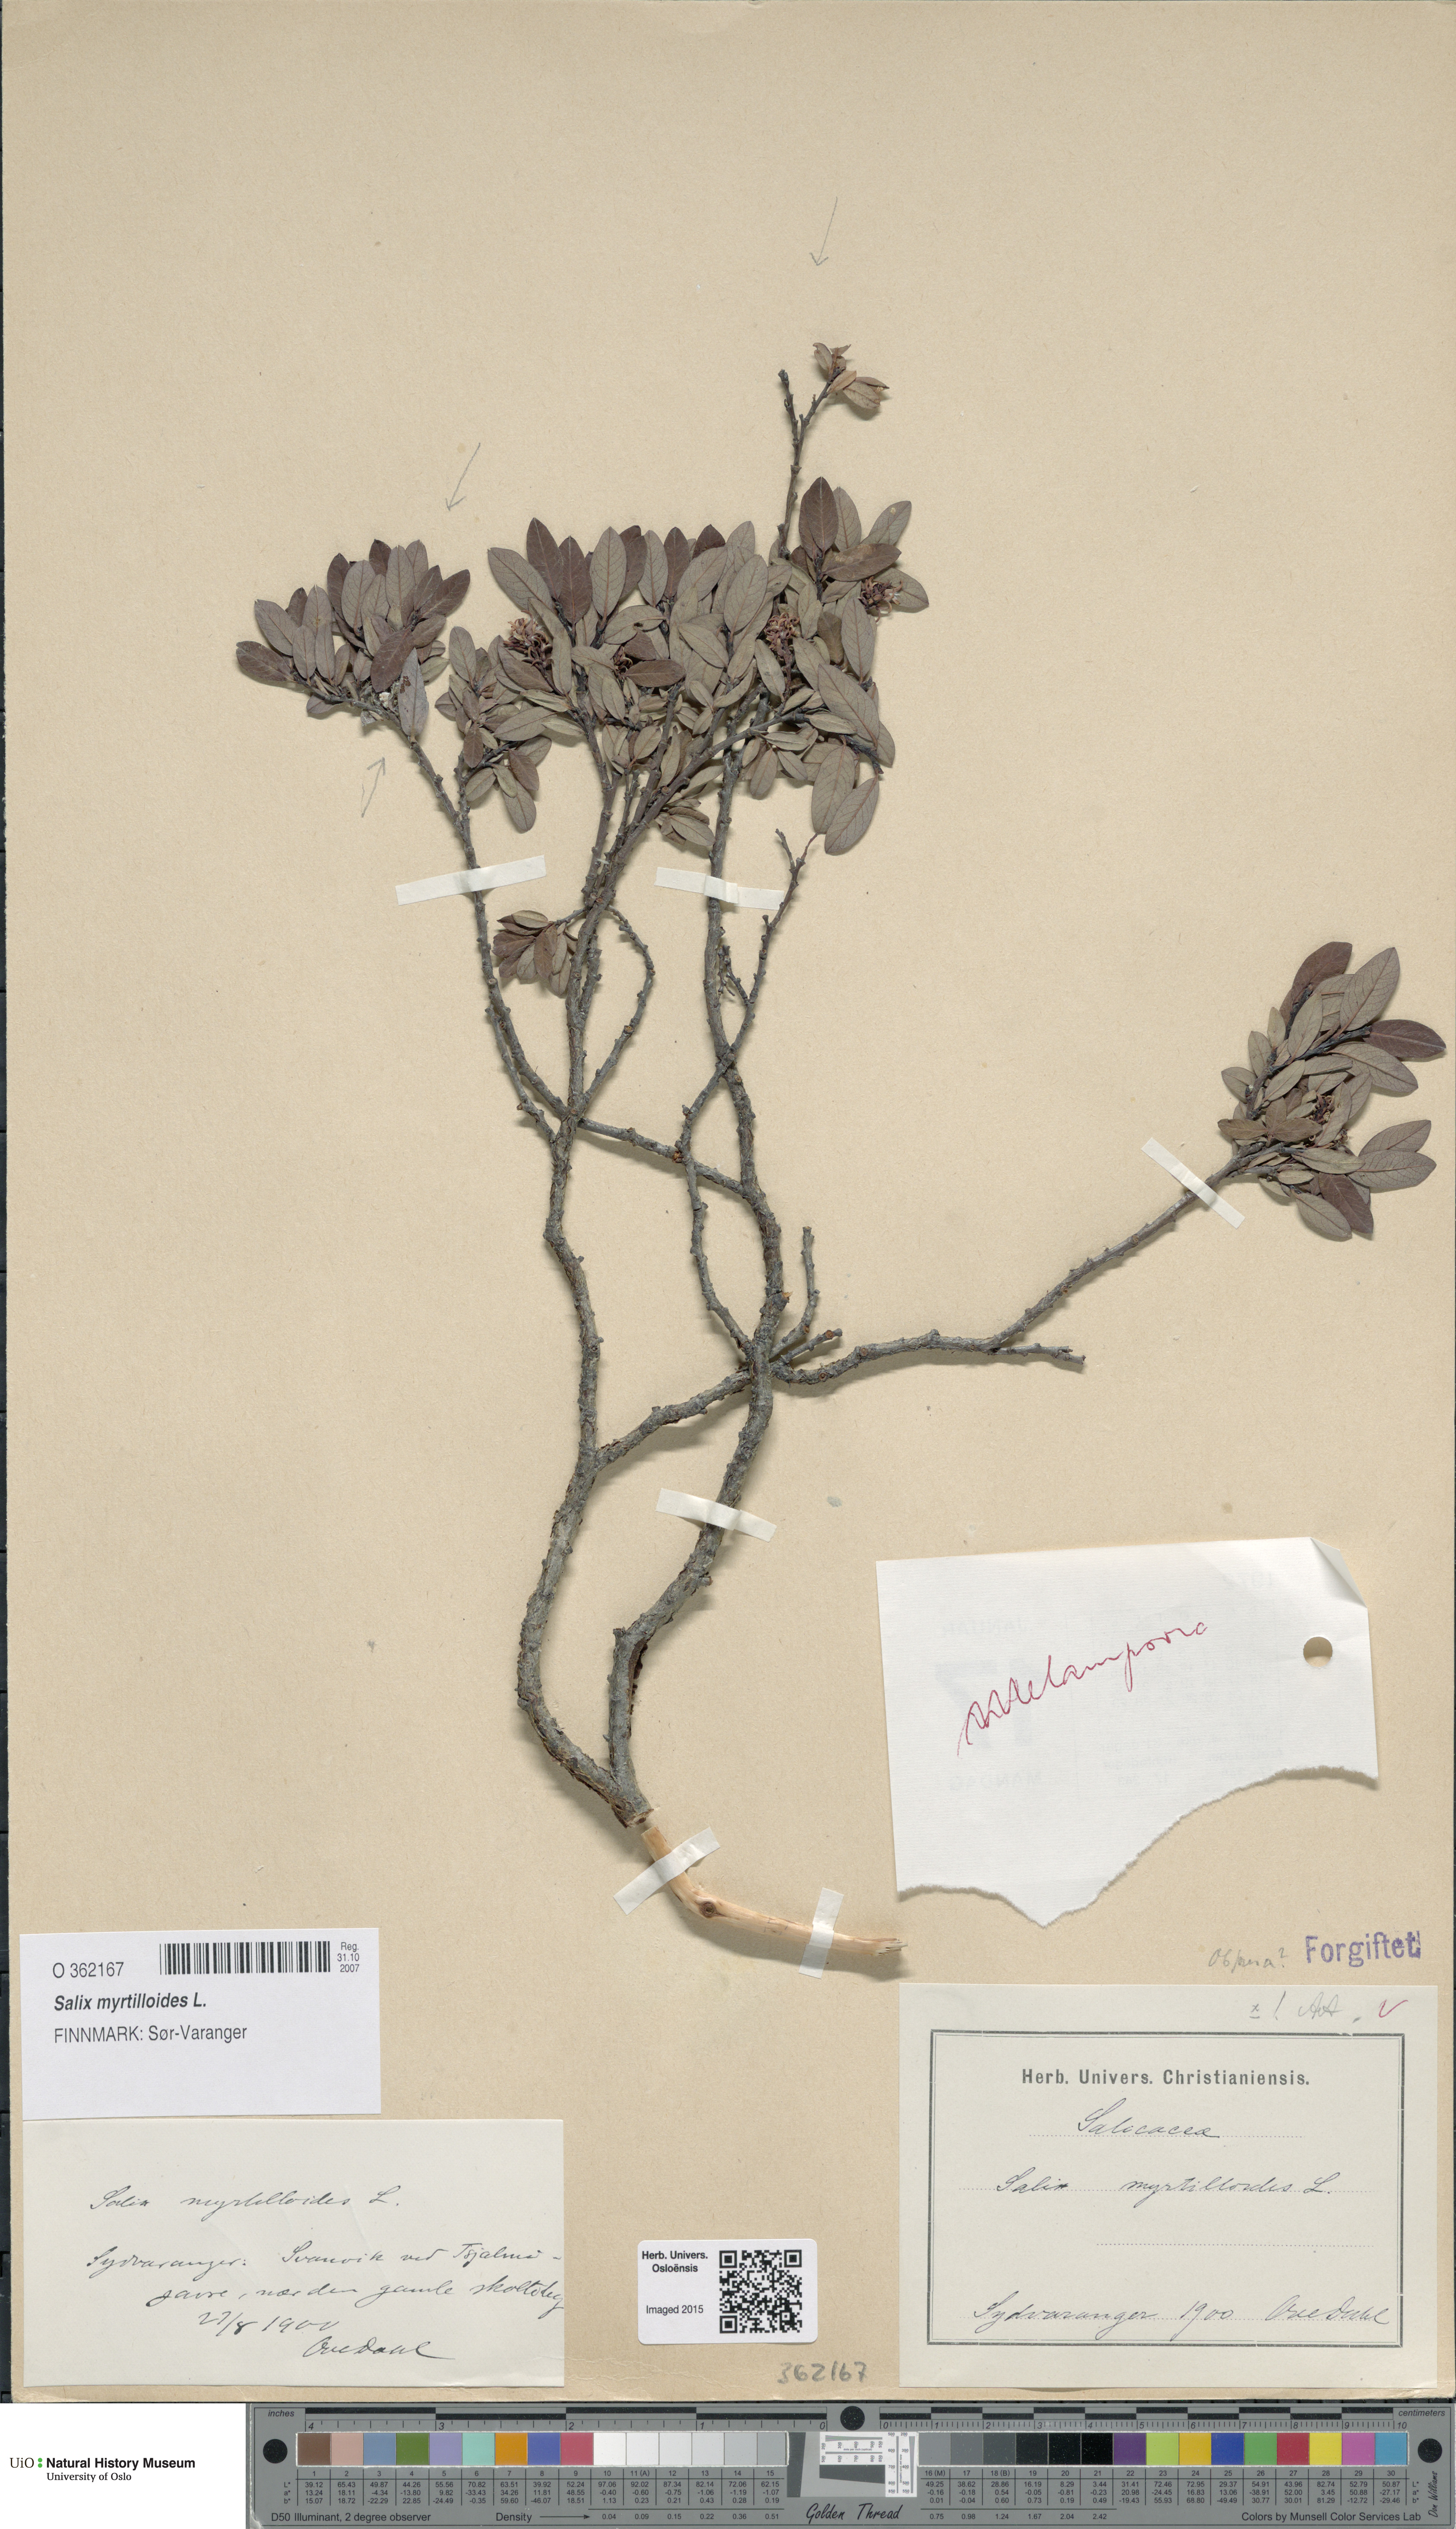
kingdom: Plantae
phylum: Tracheophyta
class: Magnoliopsida
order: Malpighiales
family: Salicaceae
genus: Salix
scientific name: Salix myrtilloides
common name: Myrtle-leaved willow
